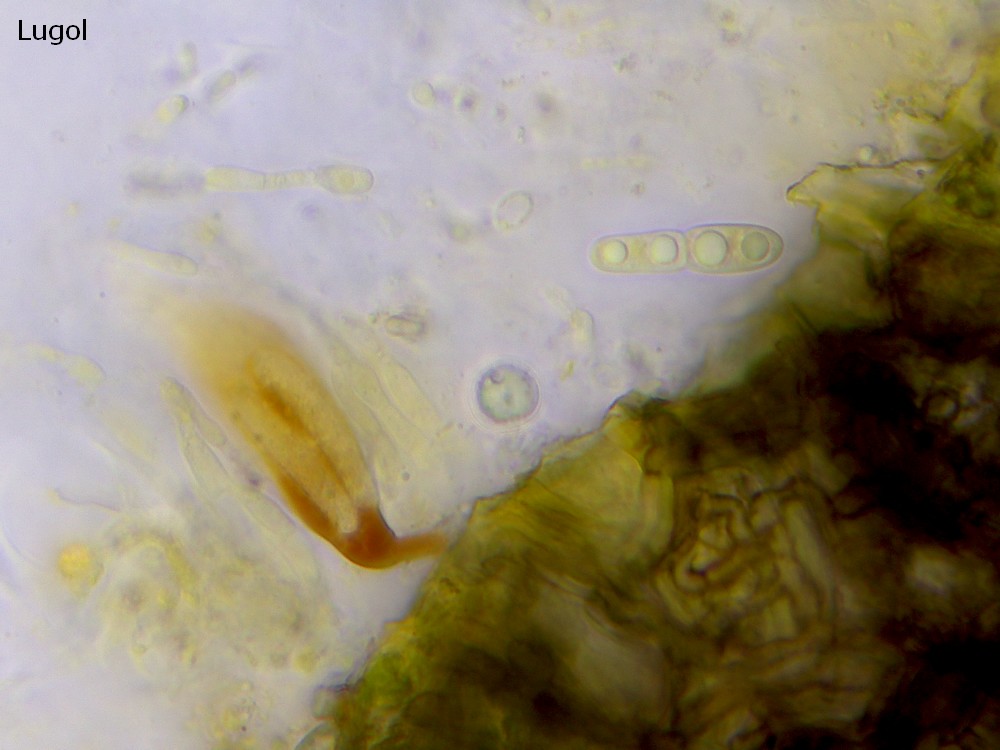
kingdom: Fungi
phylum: Ascomycota
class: Dothideomycetes
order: Microthyriales
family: Micropeltidaceae
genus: Stomiopeltis
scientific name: Stomiopeltis
